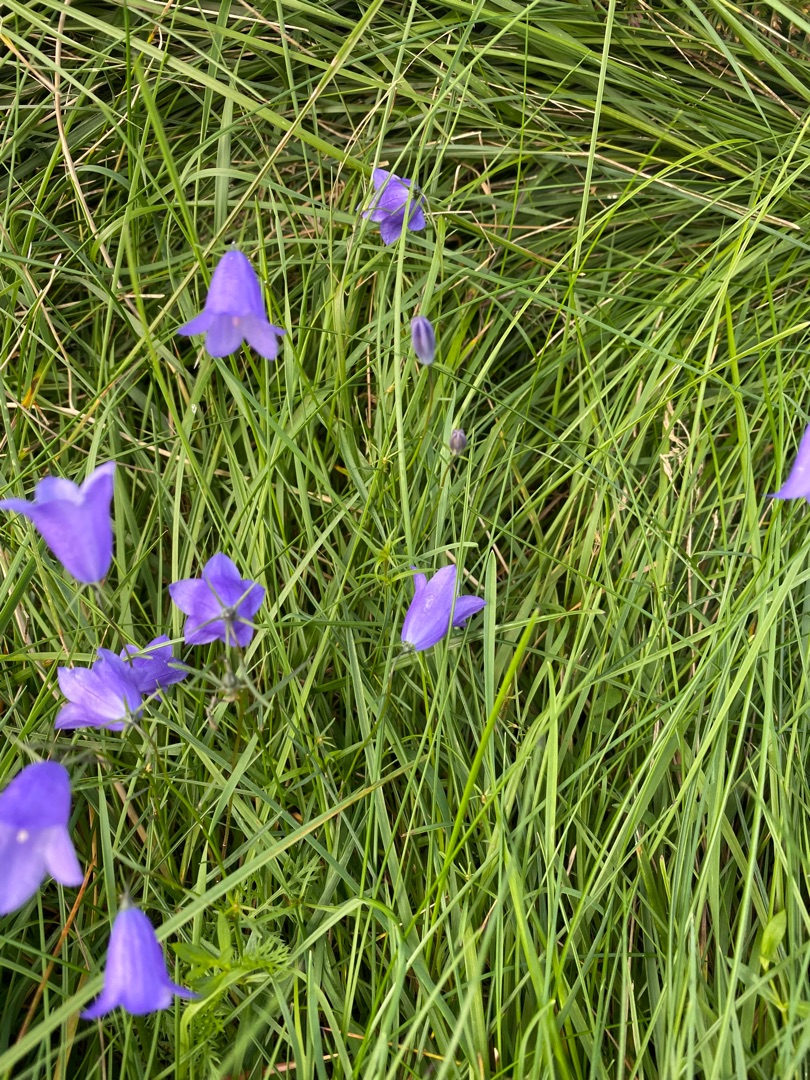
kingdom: Plantae
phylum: Tracheophyta
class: Magnoliopsida
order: Asterales
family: Campanulaceae
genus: Campanula
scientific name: Campanula rotundifolia
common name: Liden klokke
